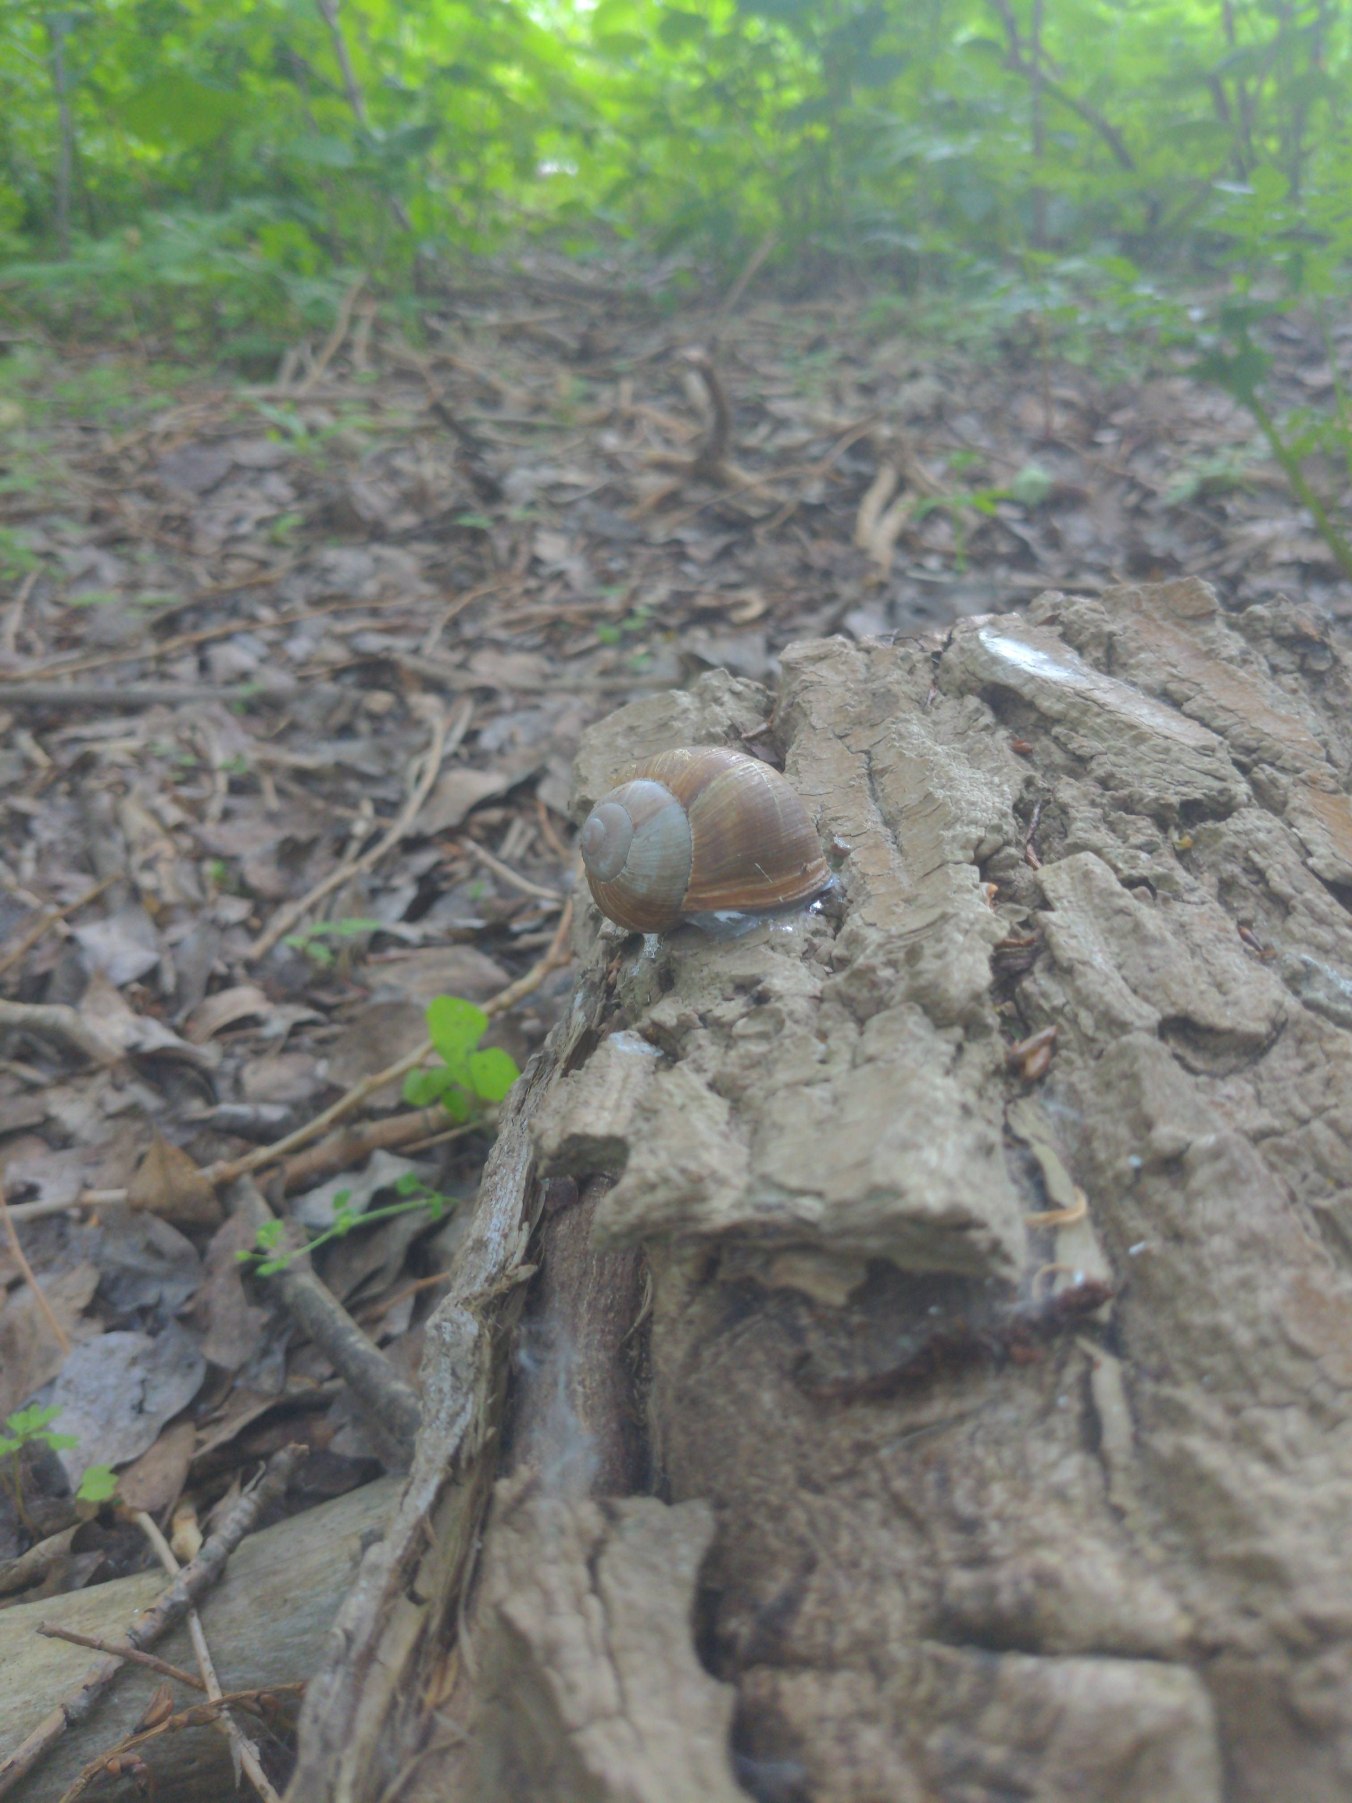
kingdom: Animalia
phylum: Mollusca
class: Gastropoda
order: Stylommatophora
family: Helicidae
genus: Helix
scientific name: Helix pomatia
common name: Vinbjergsnegl
